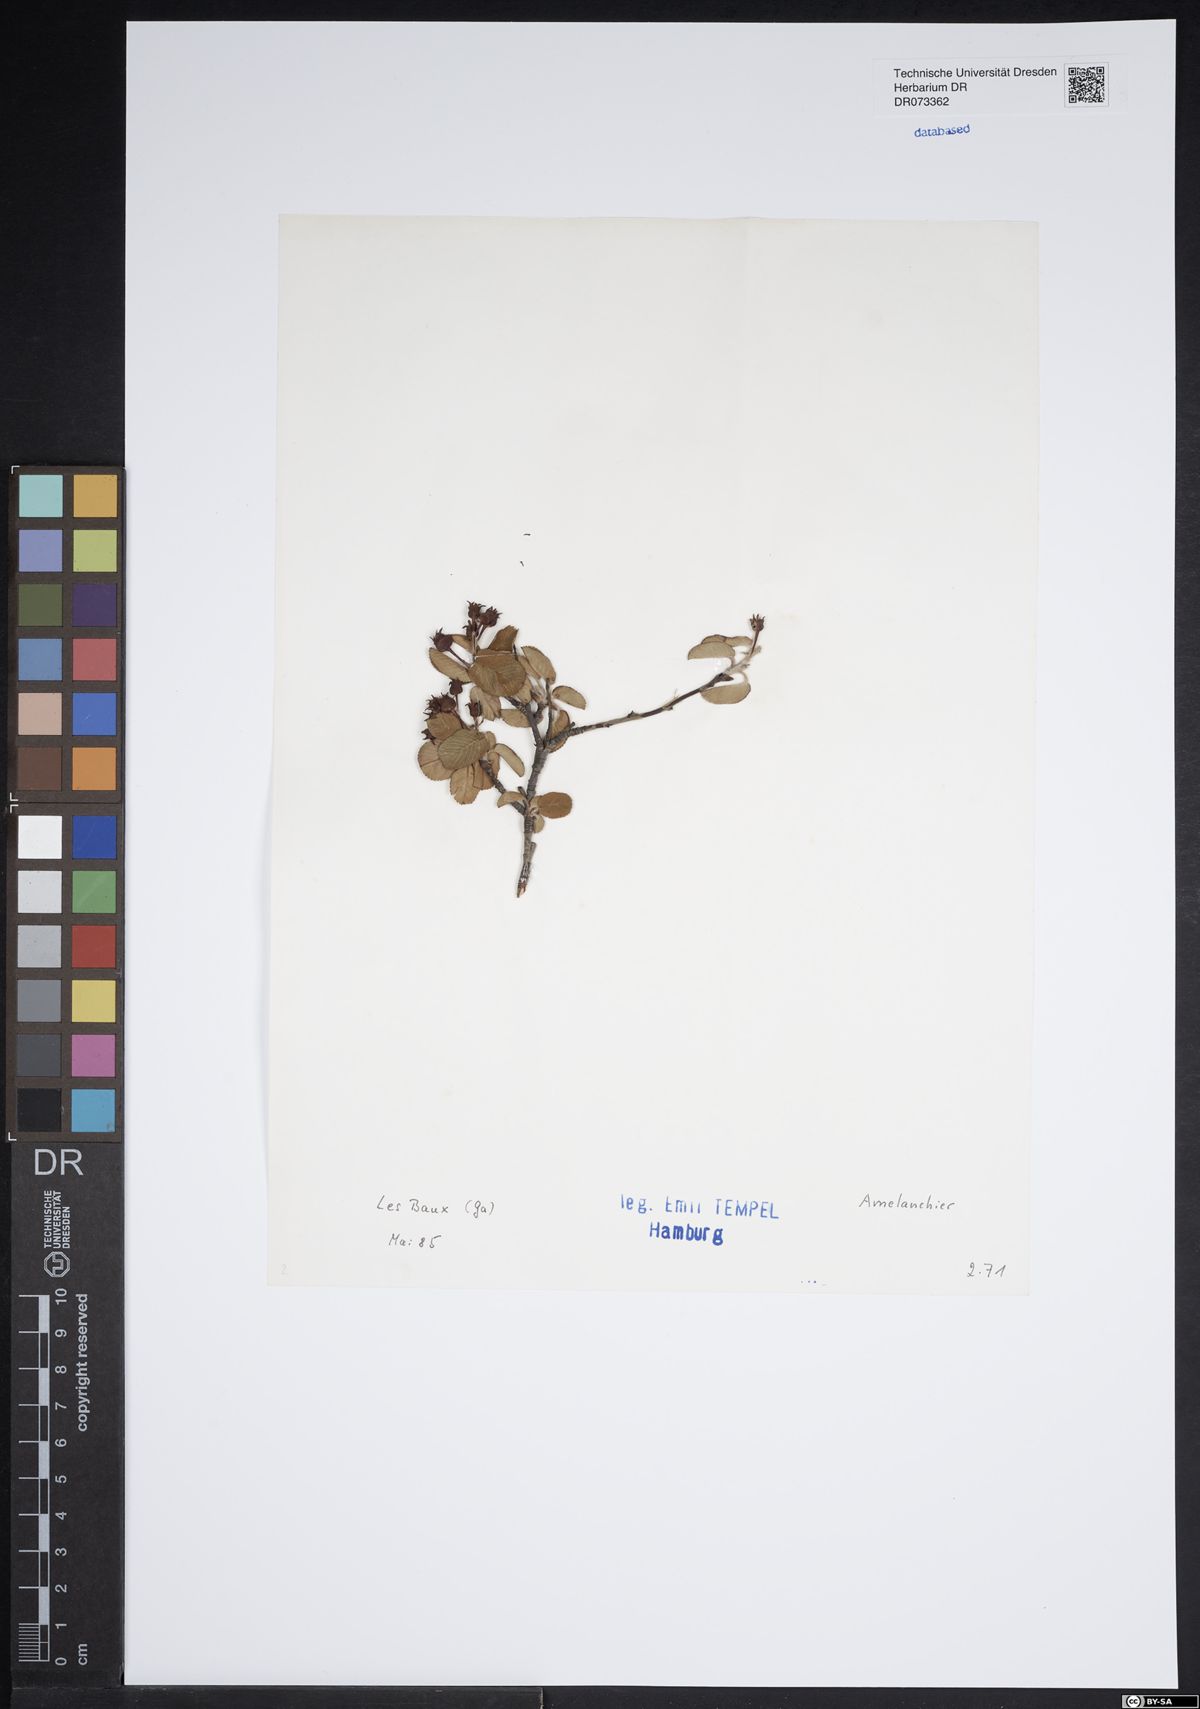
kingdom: Plantae
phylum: Tracheophyta
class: Magnoliopsida
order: Rosales
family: Rosaceae
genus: Amelanchier
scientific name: Amelanchier
